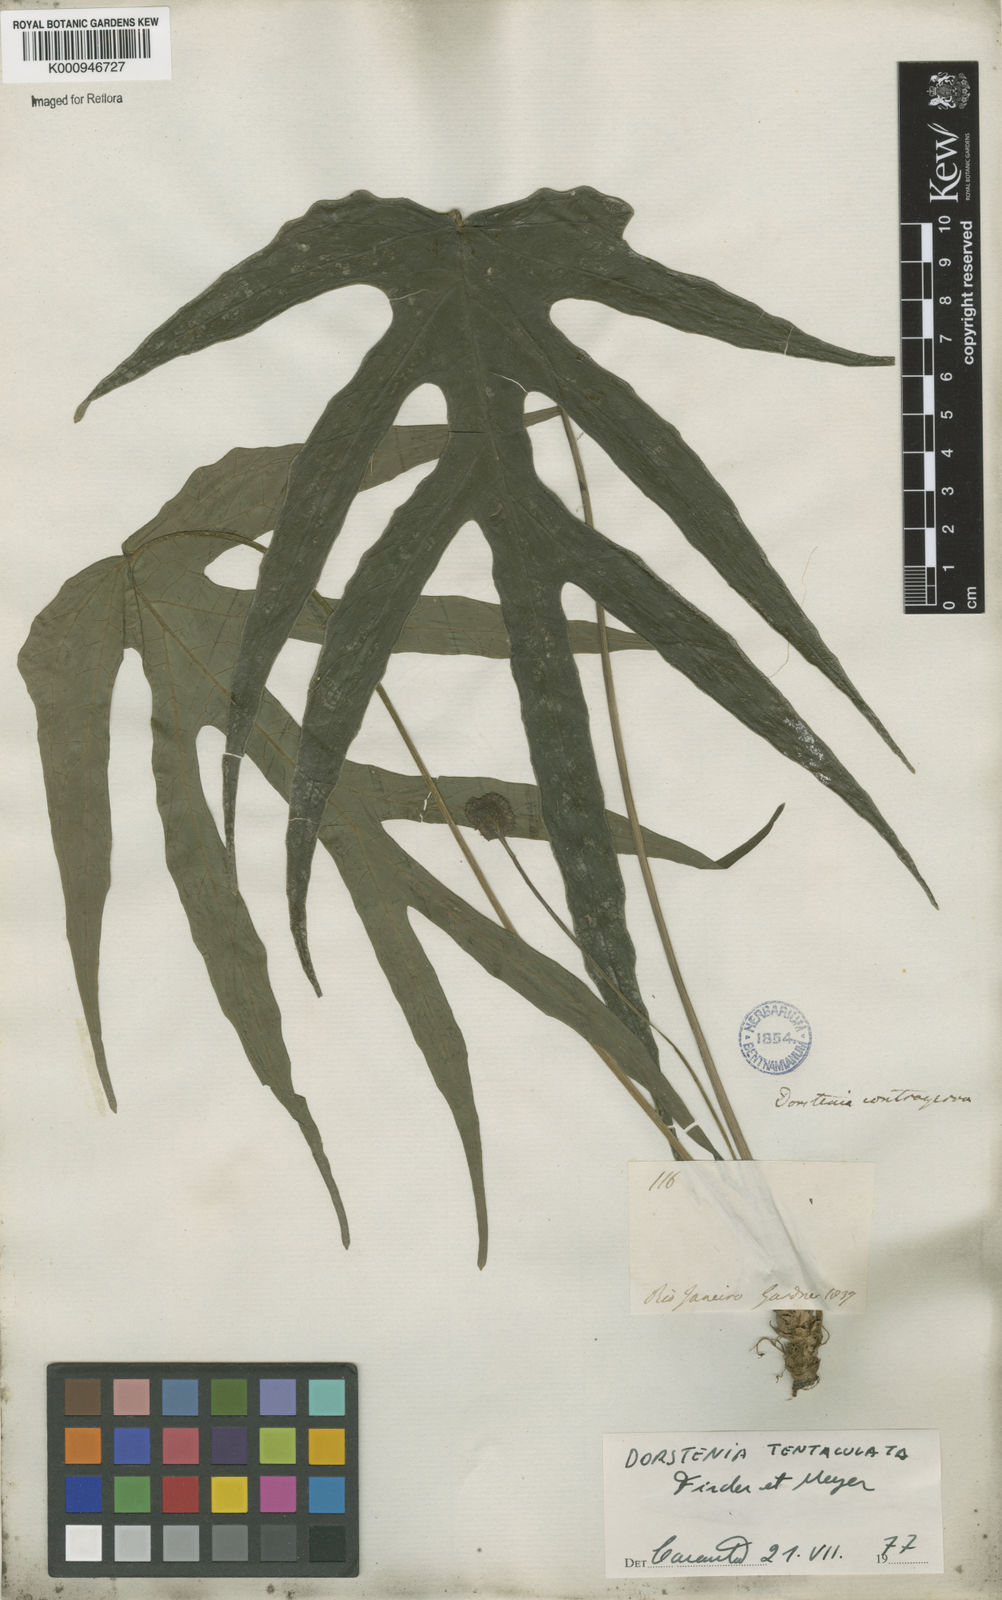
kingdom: Plantae
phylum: Tracheophyta
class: Magnoliopsida
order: Rosales
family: Moraceae
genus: Dorstenia
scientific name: Dorstenia tentaculata
